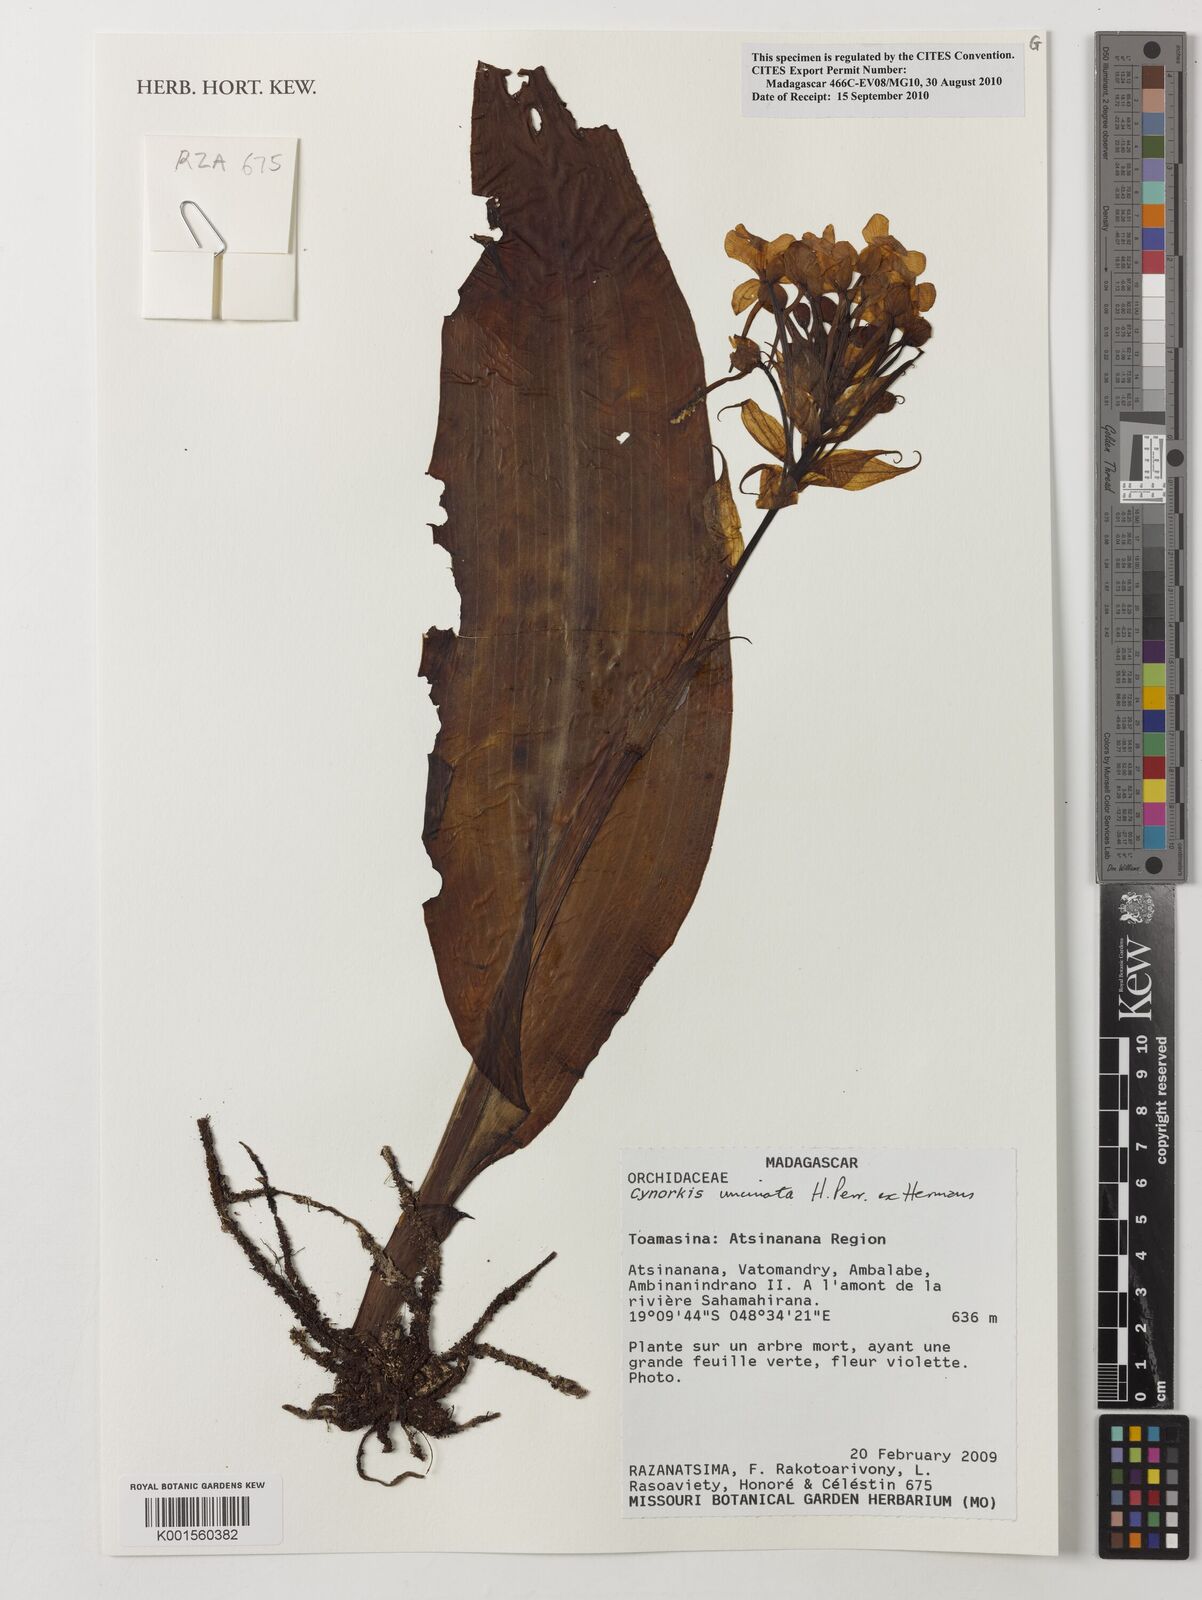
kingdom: Plantae
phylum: Tracheophyta
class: Liliopsida
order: Asparagales
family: Orchidaceae
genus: Cynorkis
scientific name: Cynorkis calanthoides
